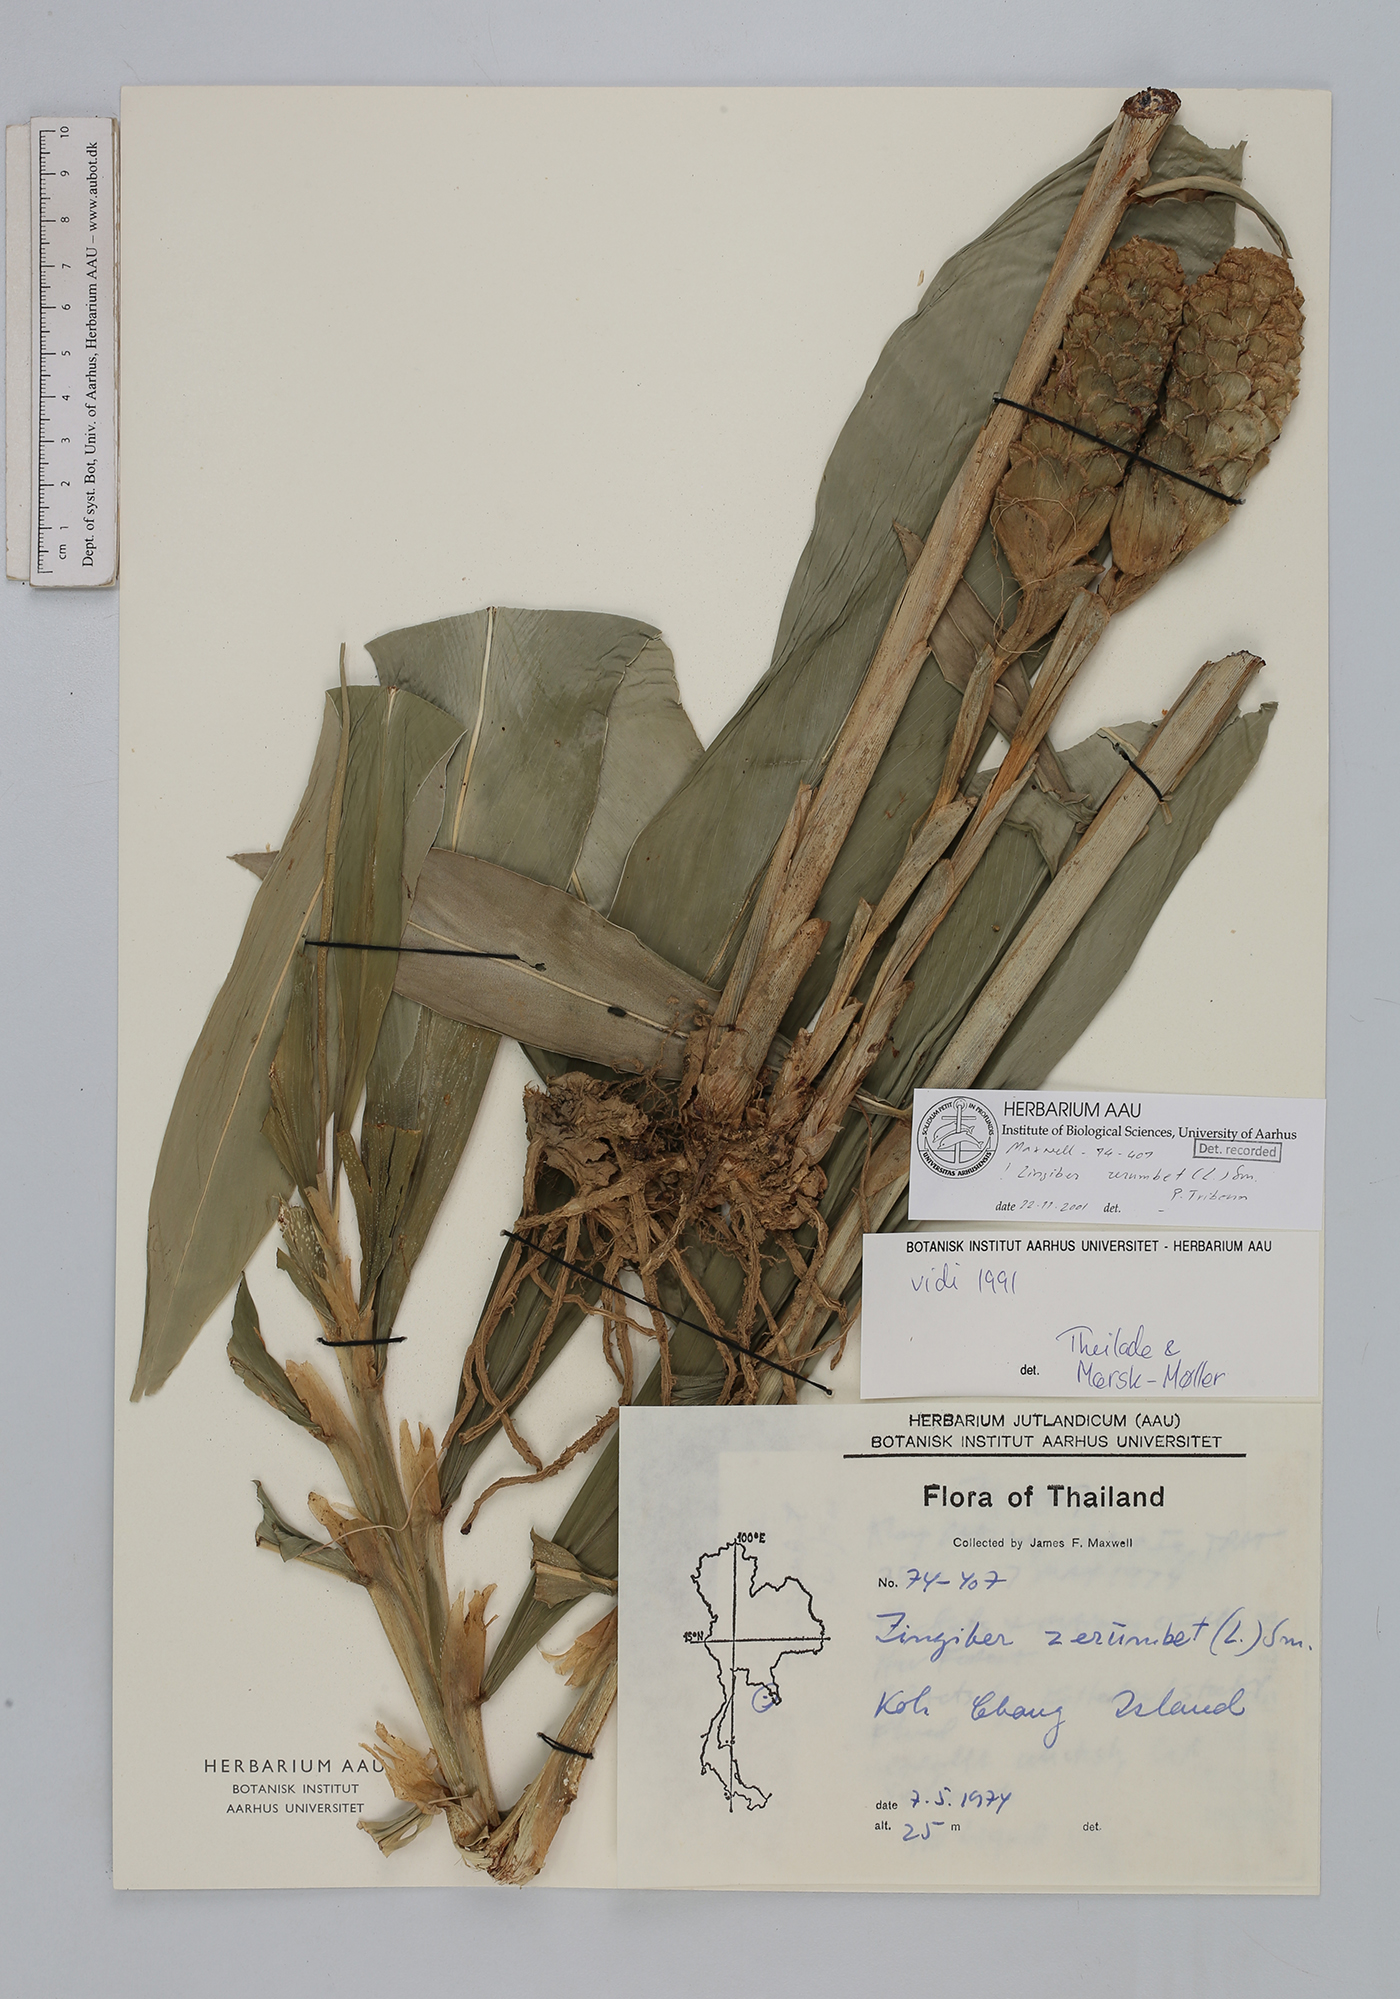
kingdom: Plantae
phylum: Tracheophyta
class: Liliopsida
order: Zingiberales
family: Zingiberaceae
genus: Zingiber
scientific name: Zingiber zerumbet
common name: Bitter ginger
